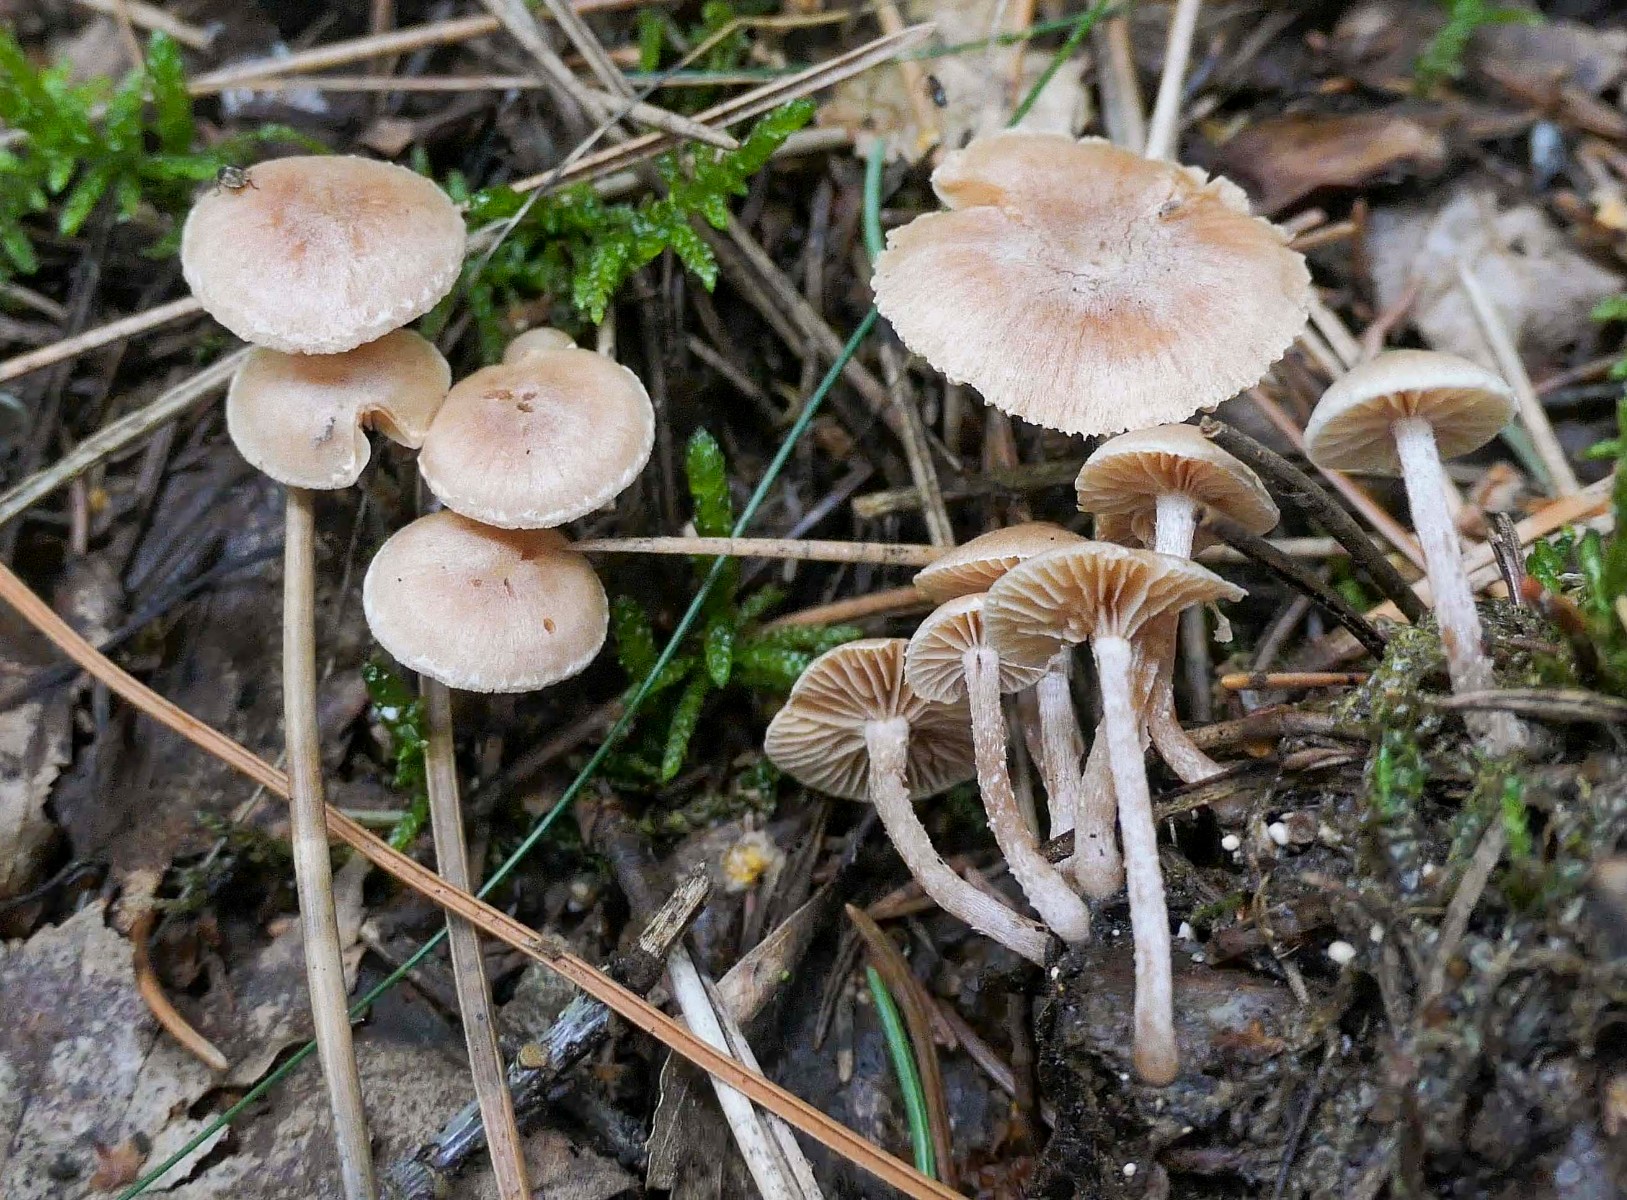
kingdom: Fungi
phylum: Basidiomycota
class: Agaricomycetes
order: Agaricales
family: Tubariaceae
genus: Tubaria
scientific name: Tubaria conspersa
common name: bleg fnughat
